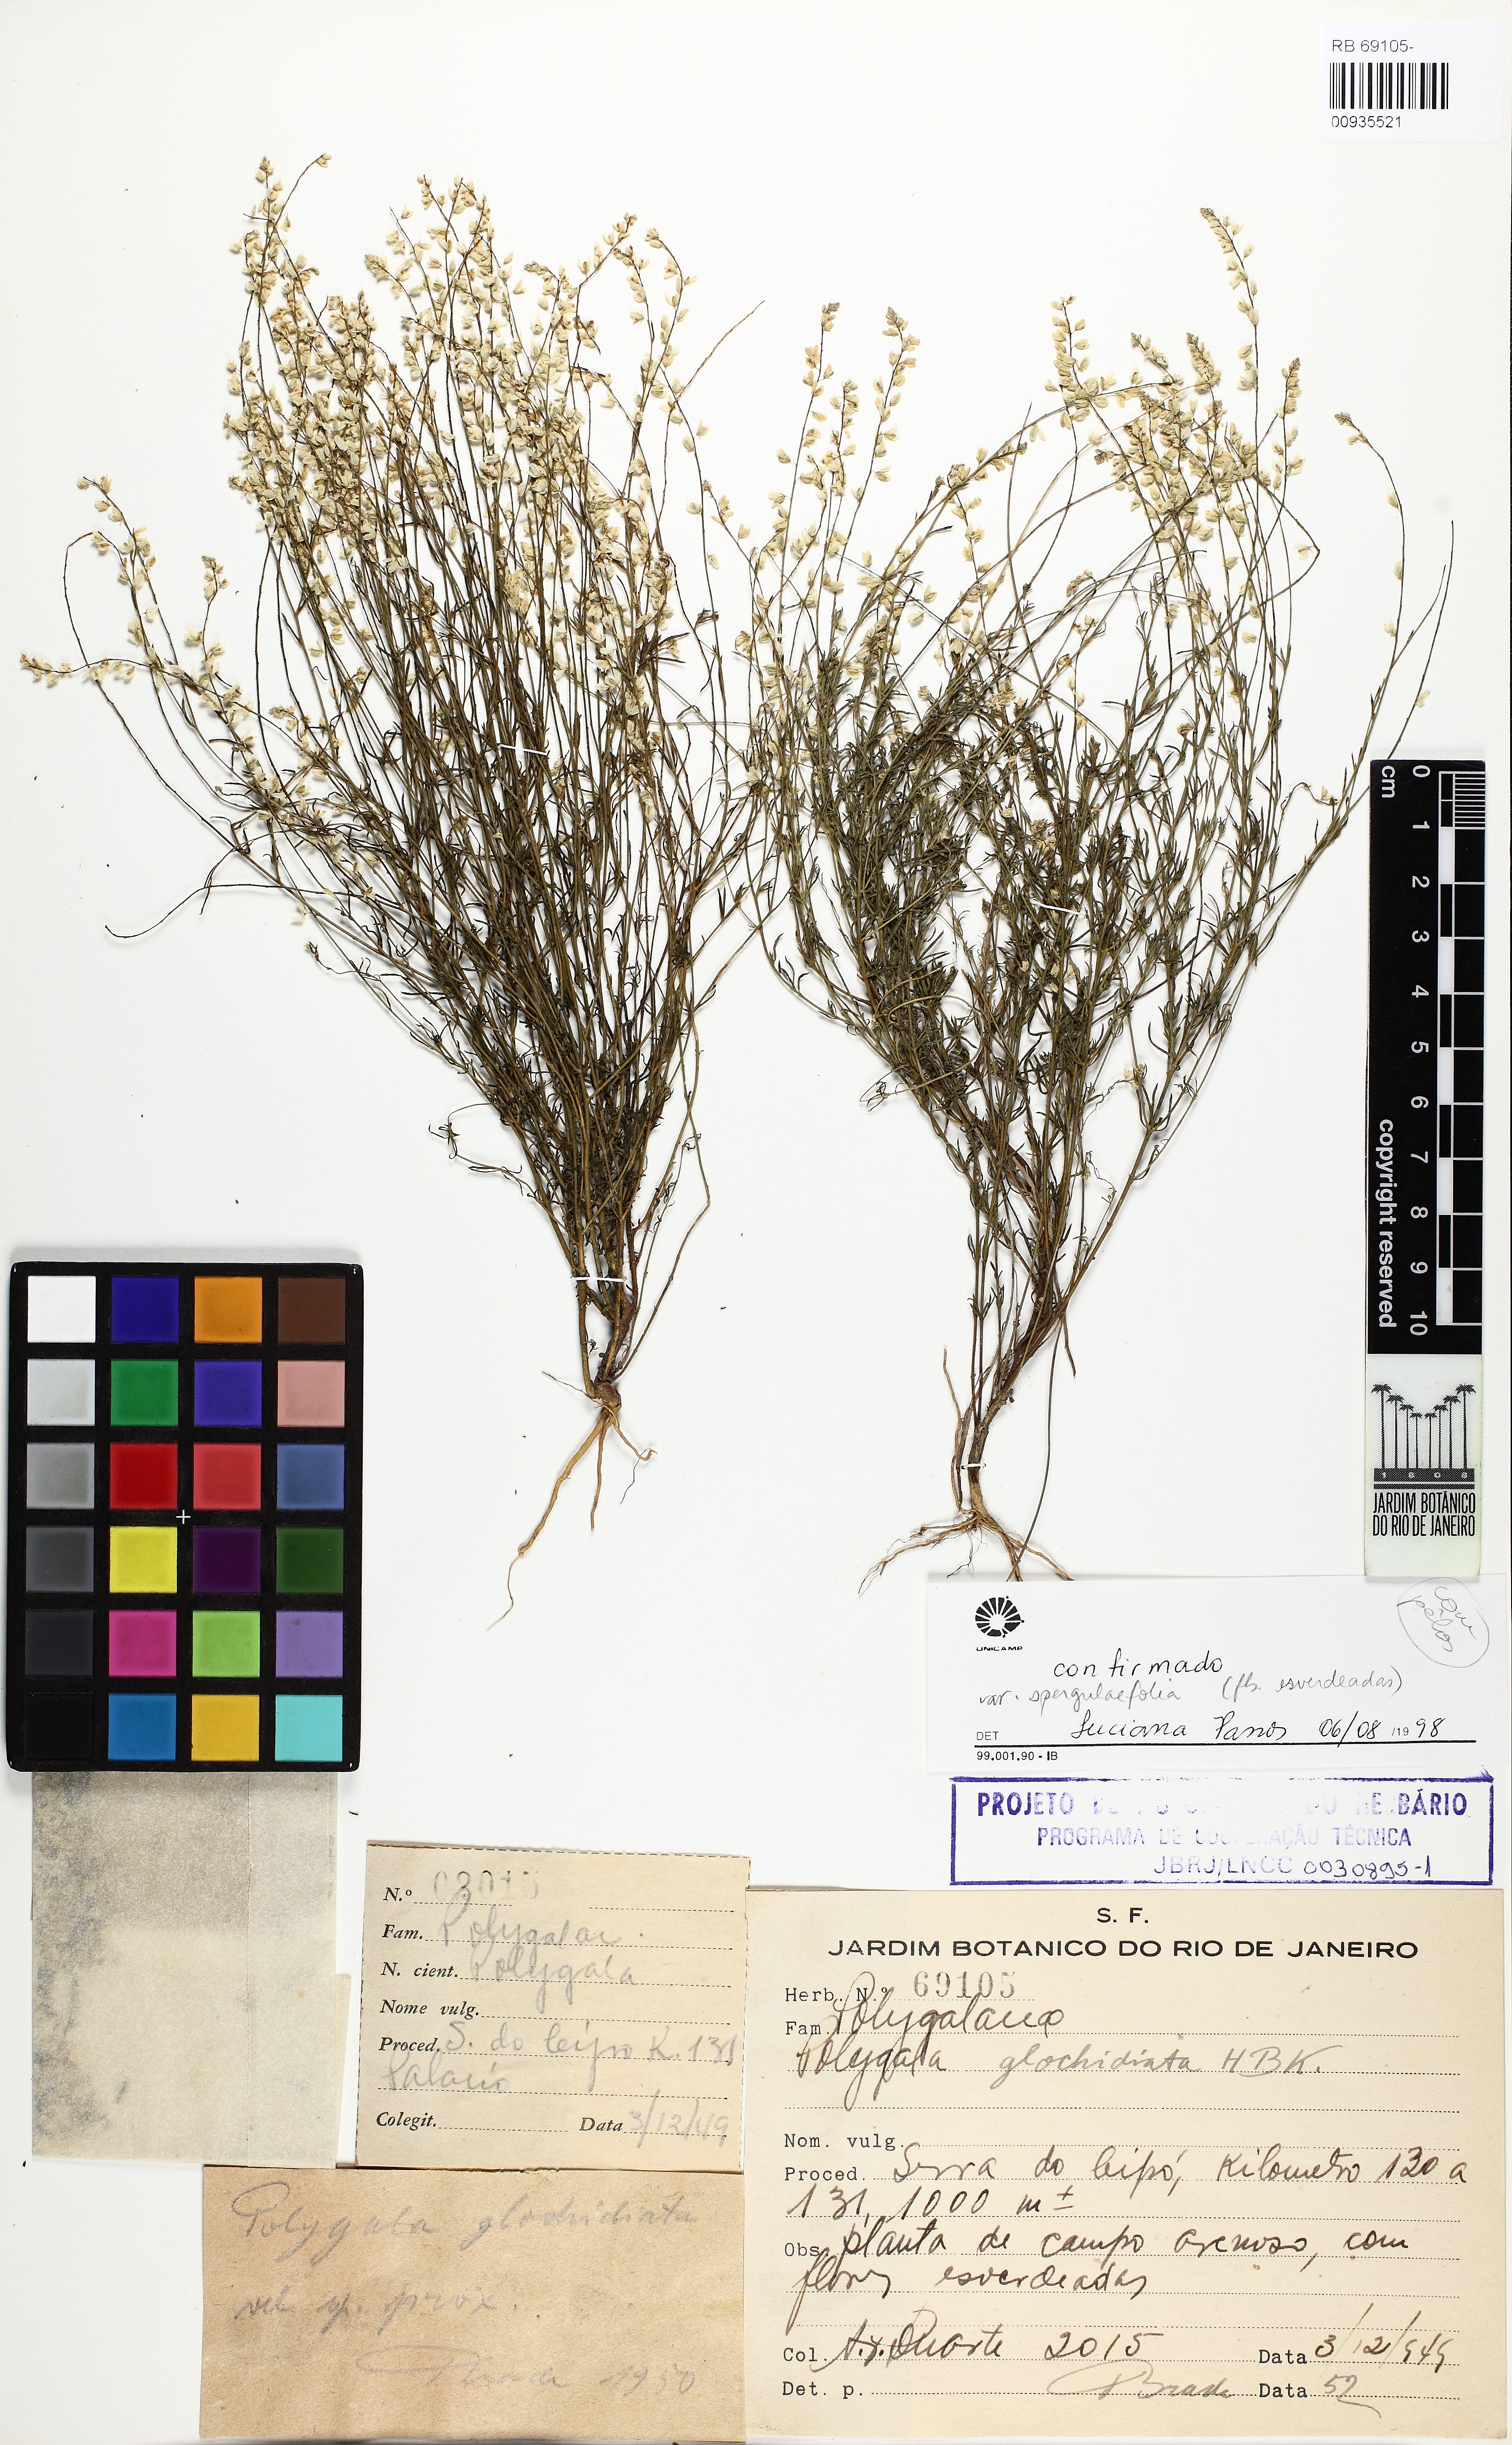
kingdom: Plantae
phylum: Tracheophyta
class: Magnoliopsida
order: Fabales
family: Polygalaceae
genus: Polygala
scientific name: Polygala glochidiata
